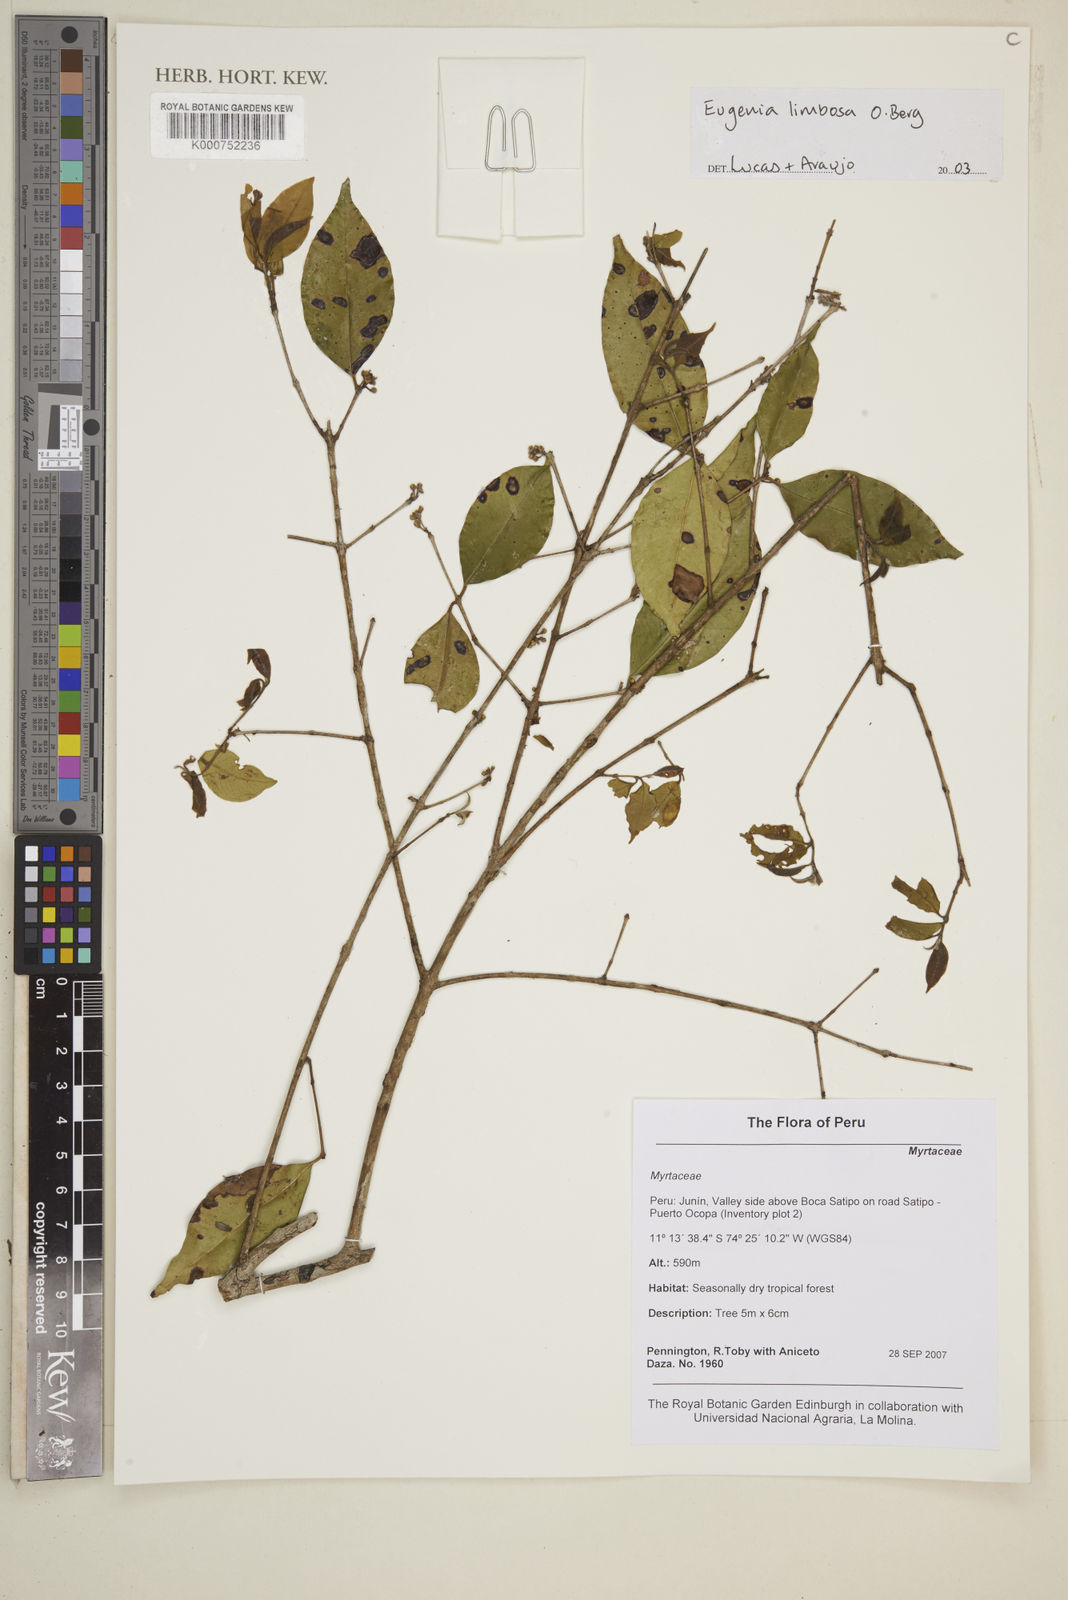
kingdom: Plantae
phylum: Tracheophyta
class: Magnoliopsida
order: Myrtales
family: Myrtaceae
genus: Eugenia
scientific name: Eugenia limbosa
